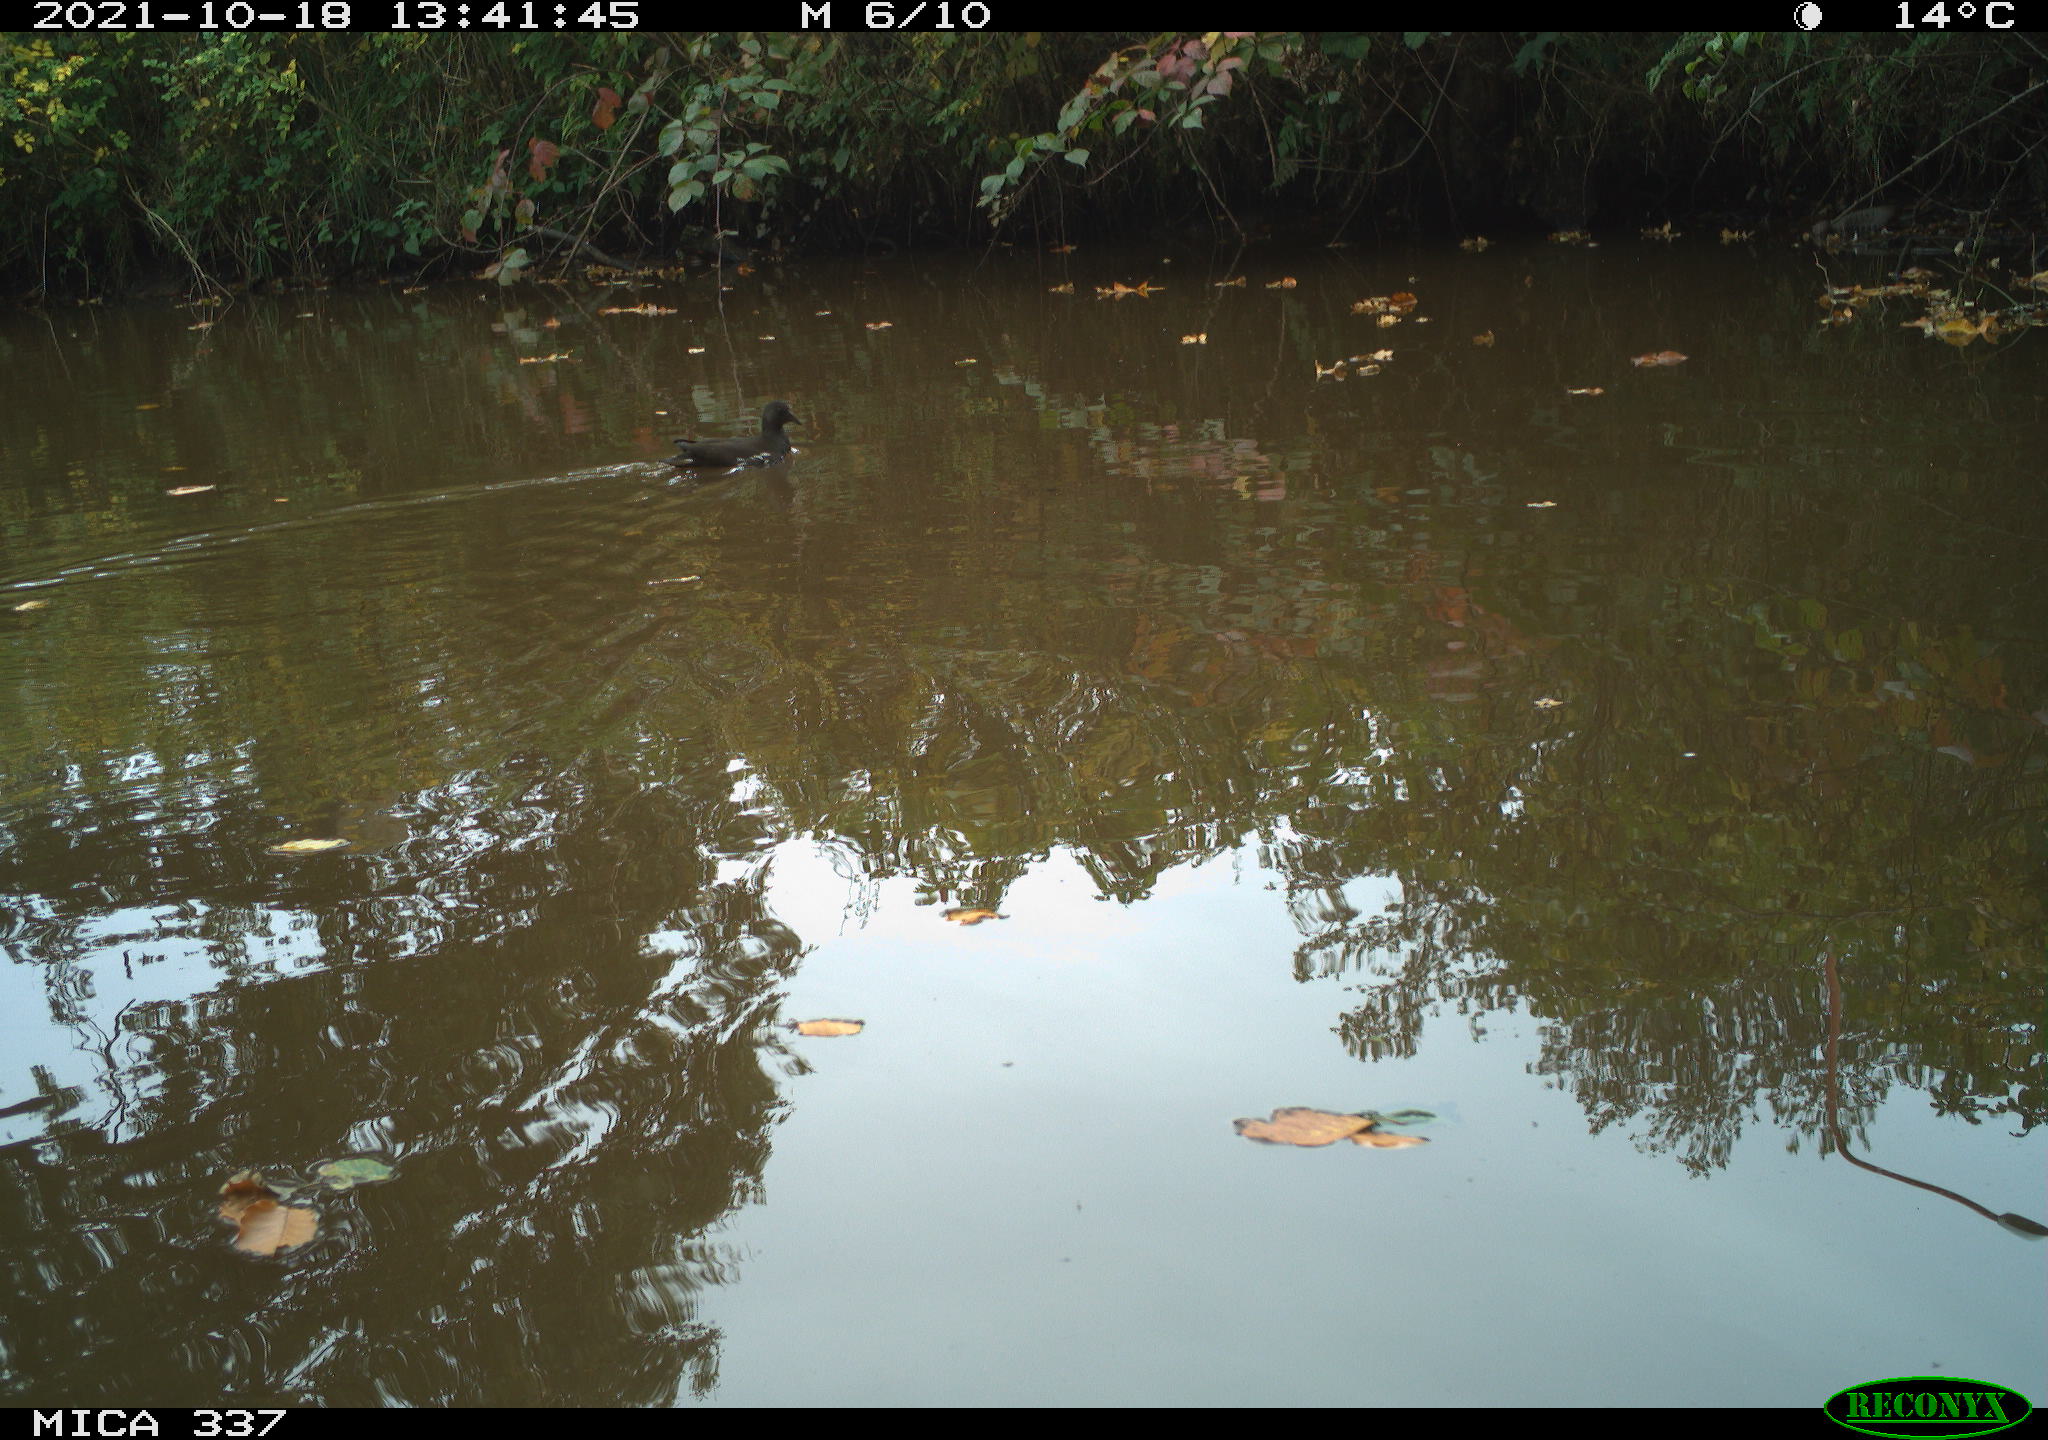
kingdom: Animalia
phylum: Chordata
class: Aves
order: Gruiformes
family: Rallidae
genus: Gallinula
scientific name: Gallinula chloropus
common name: Common moorhen
